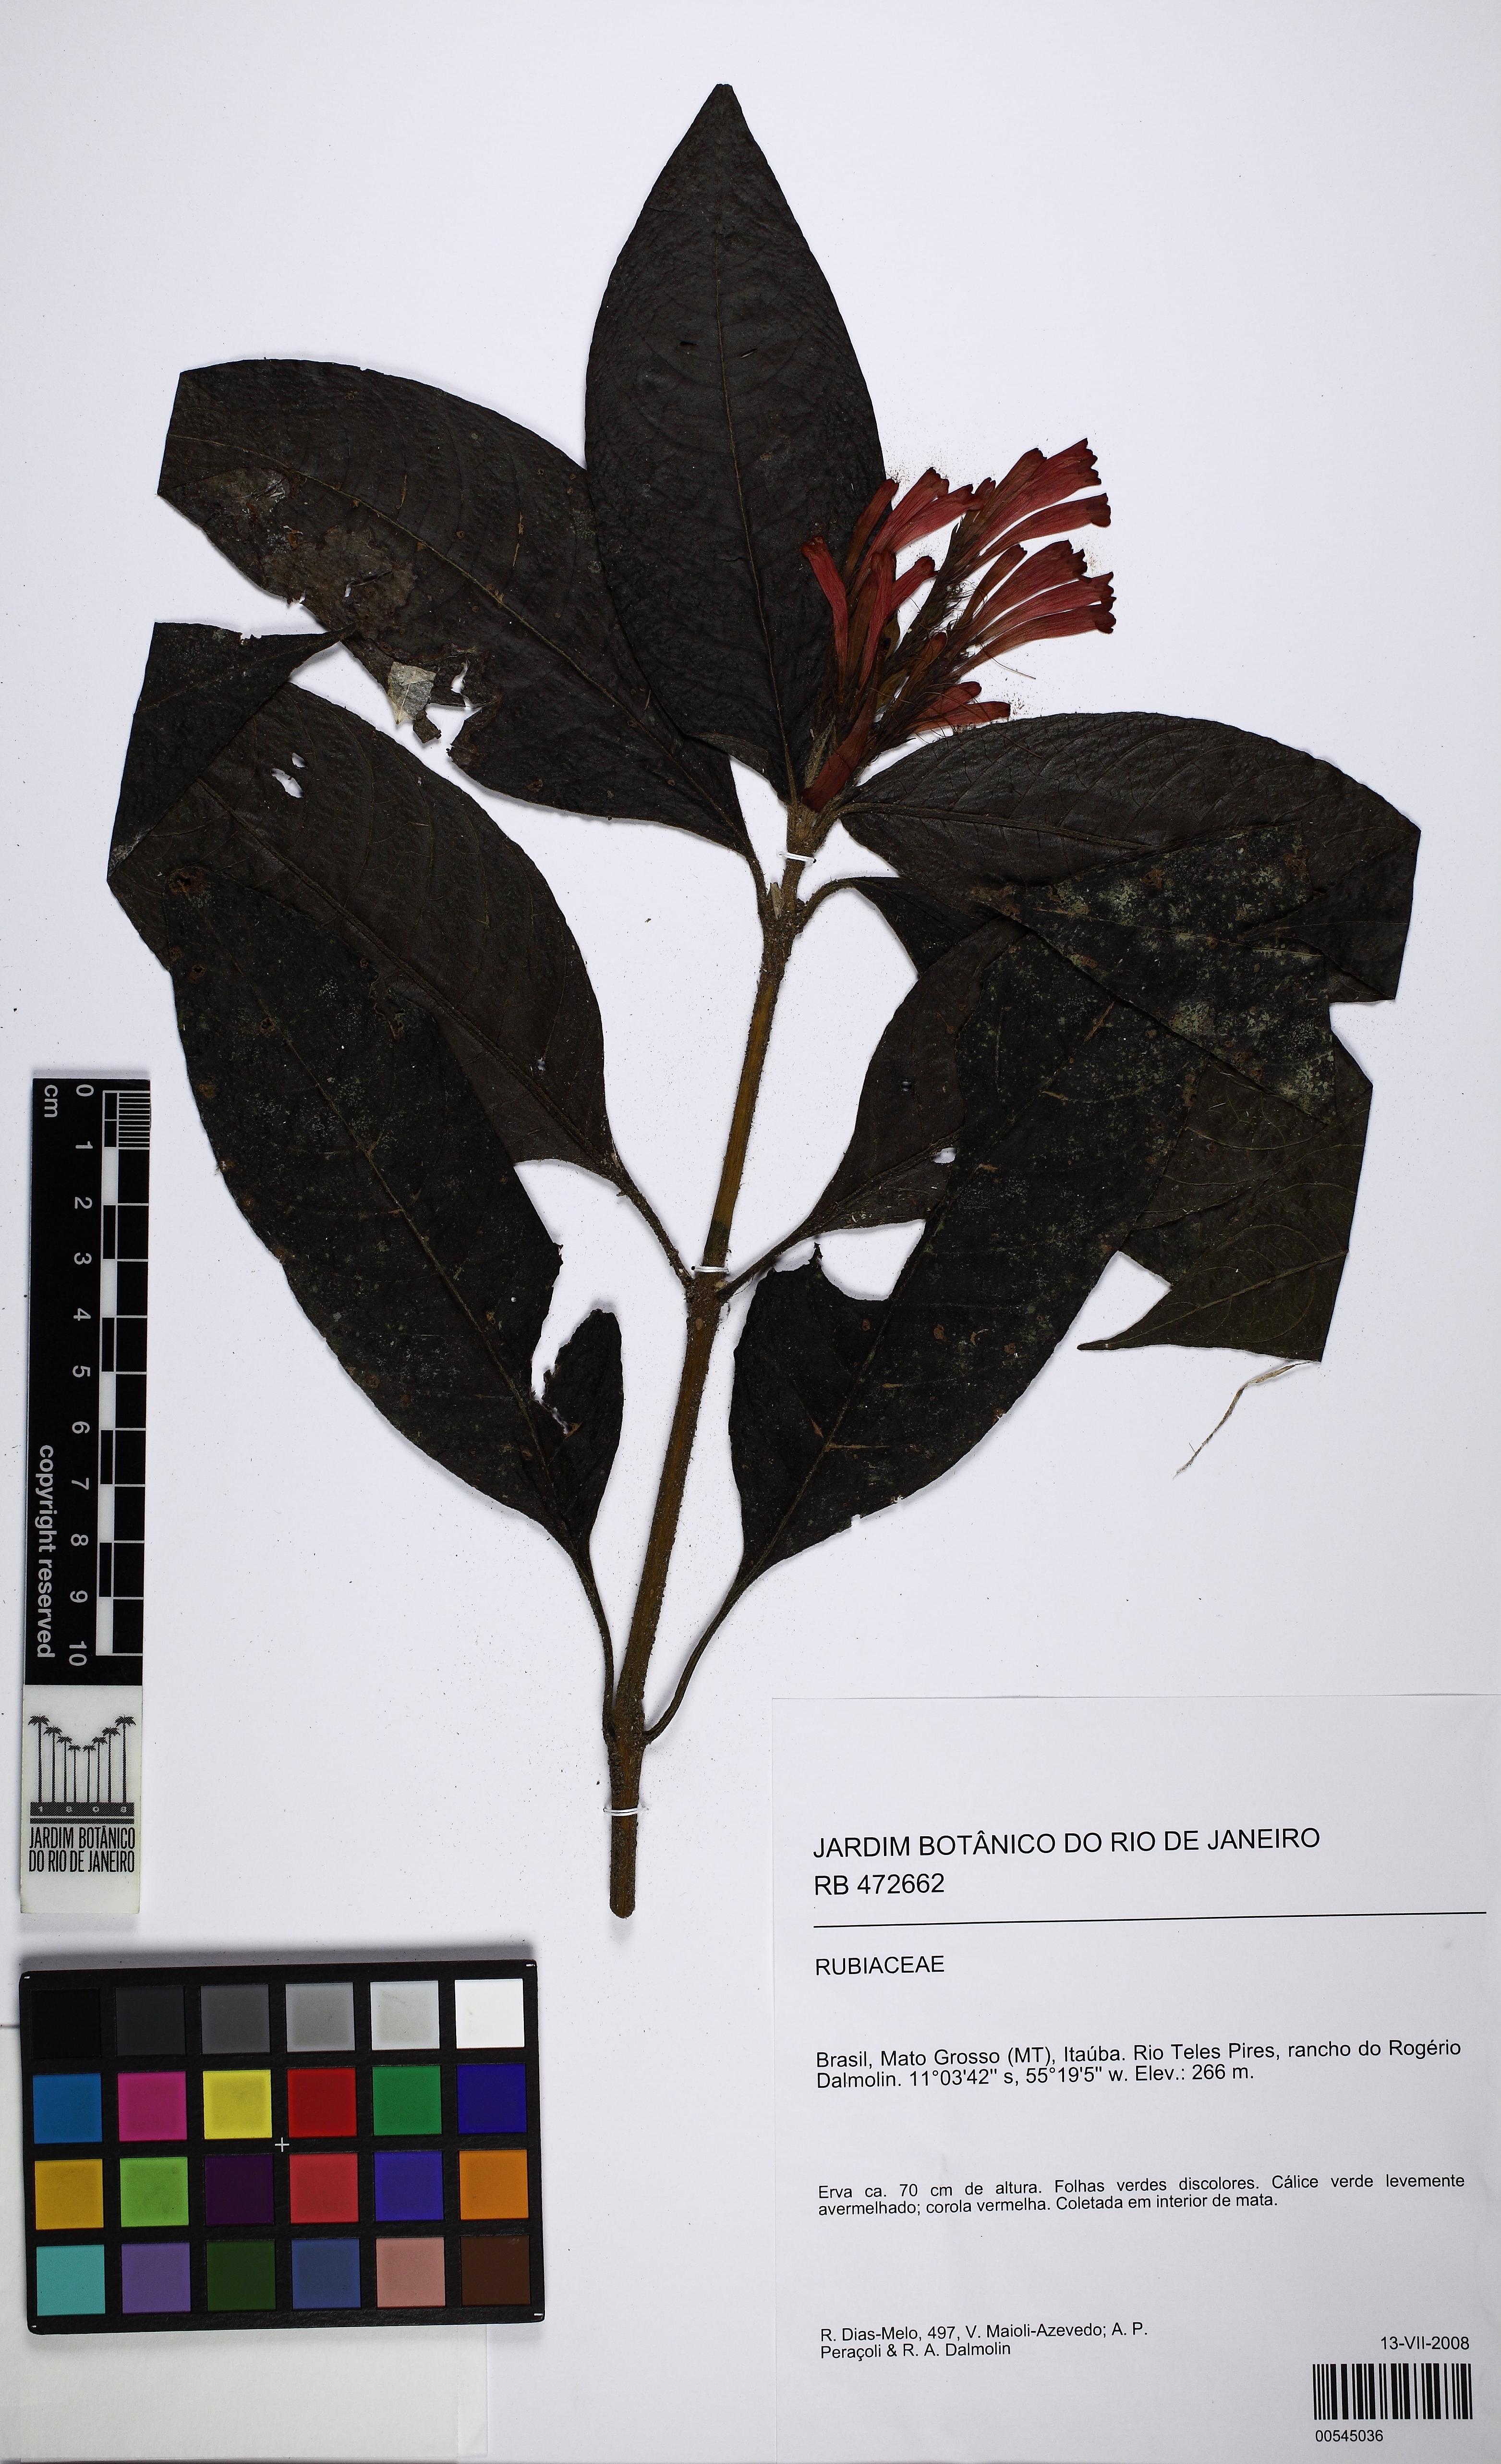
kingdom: Plantae
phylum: Tracheophyta
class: Magnoliopsida
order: Lamiales
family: Acanthaceae
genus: Pranceacanthus
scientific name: Pranceacanthus coccineus
